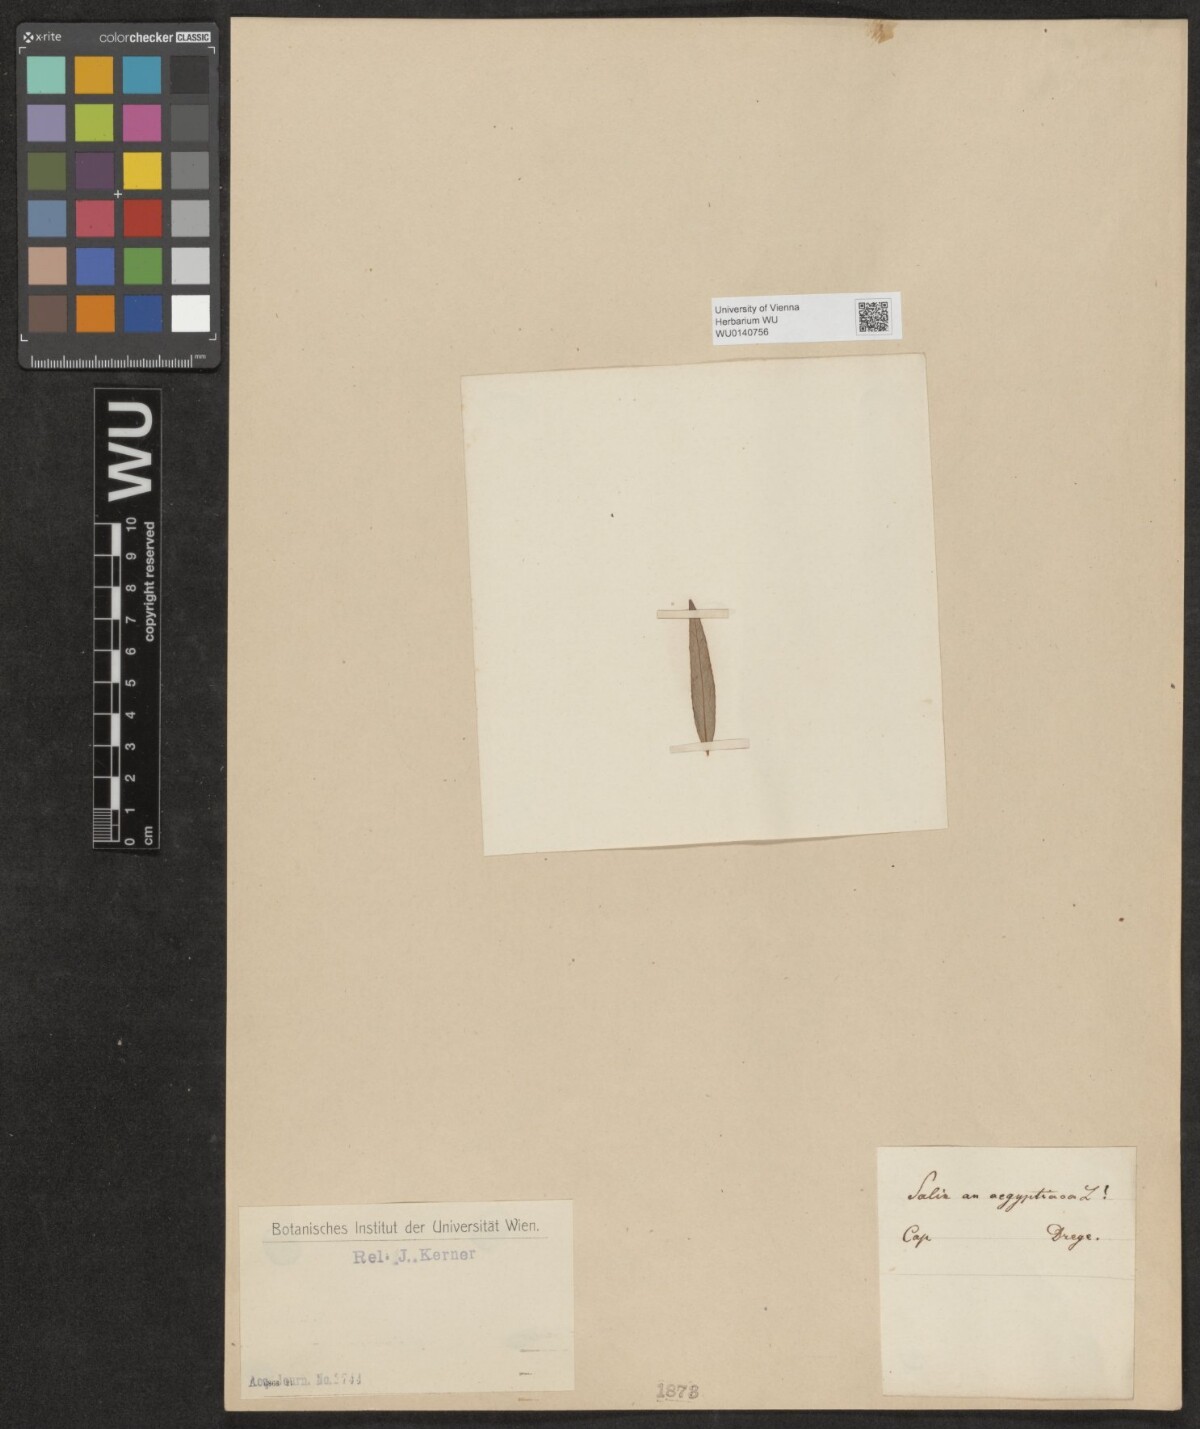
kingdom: Plantae
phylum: Tracheophyta
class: Magnoliopsida
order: Malpighiales
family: Salicaceae
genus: Salix
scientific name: Salix
